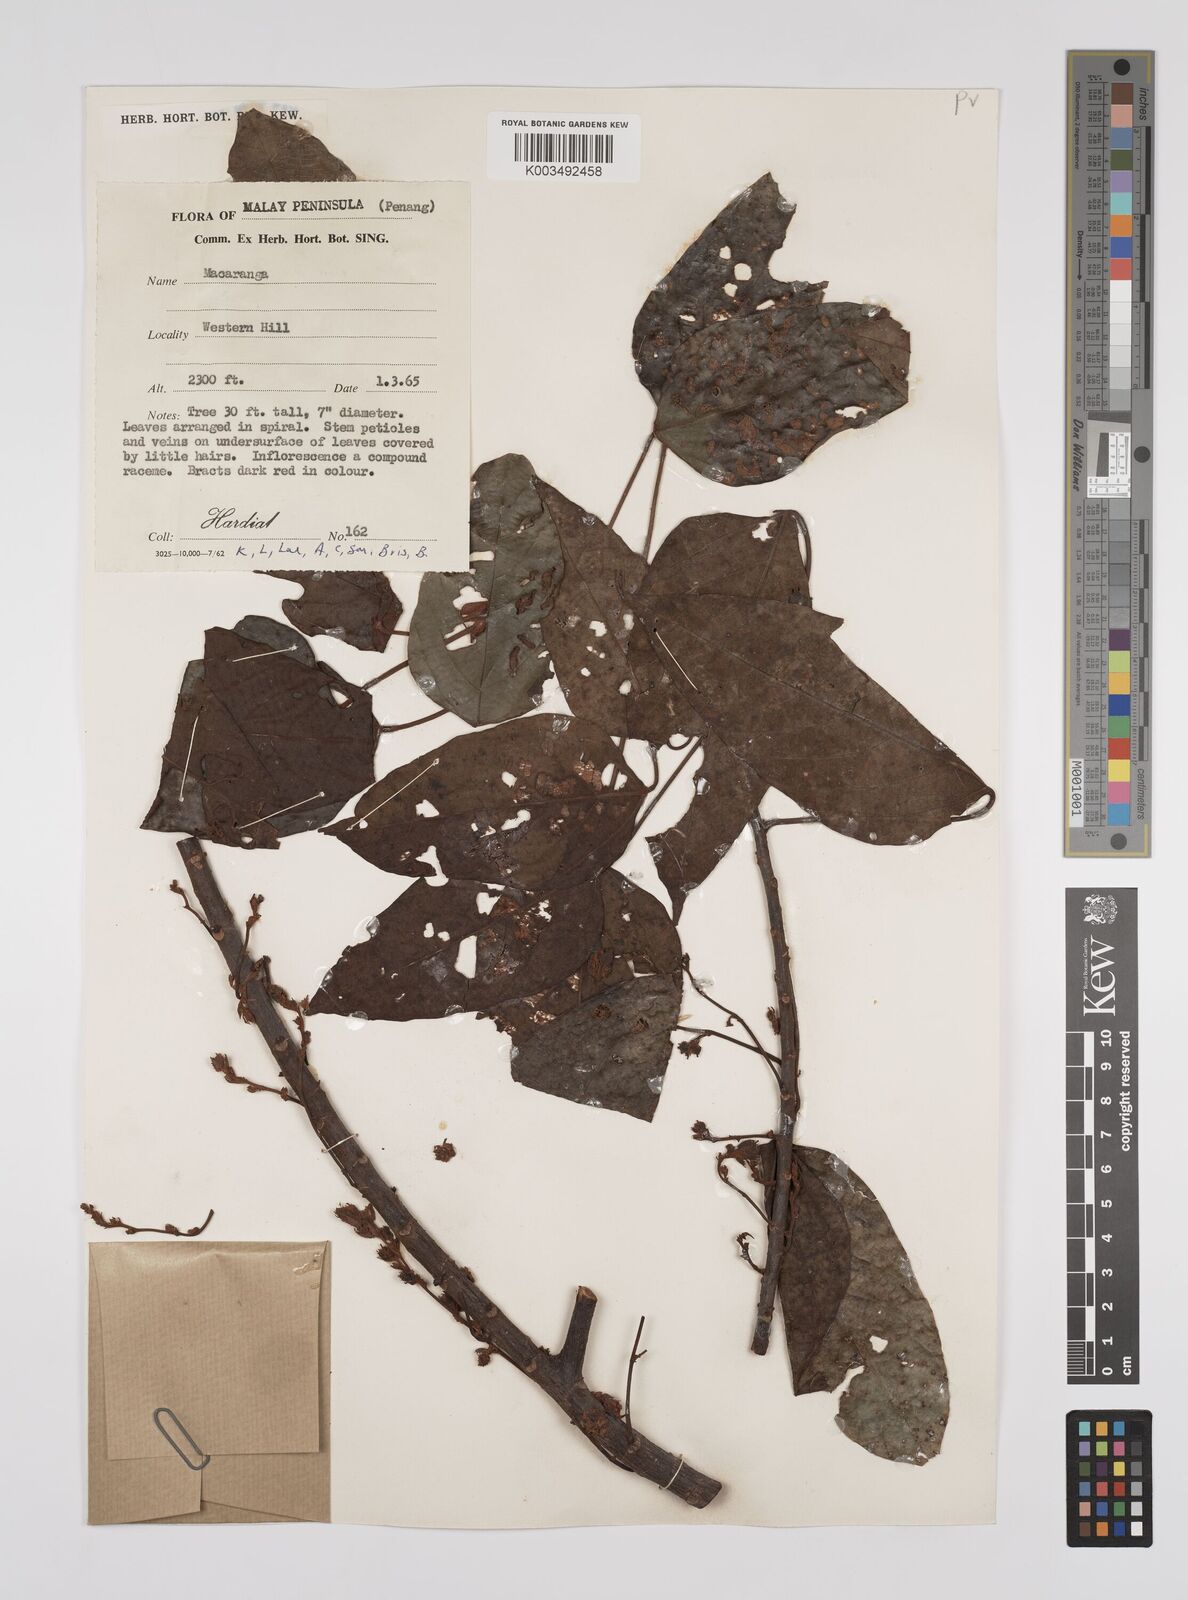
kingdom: Plantae
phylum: Tracheophyta
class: Magnoliopsida
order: Malpighiales
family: Euphorbiaceae
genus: Macaranga
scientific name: Macaranga heynei
